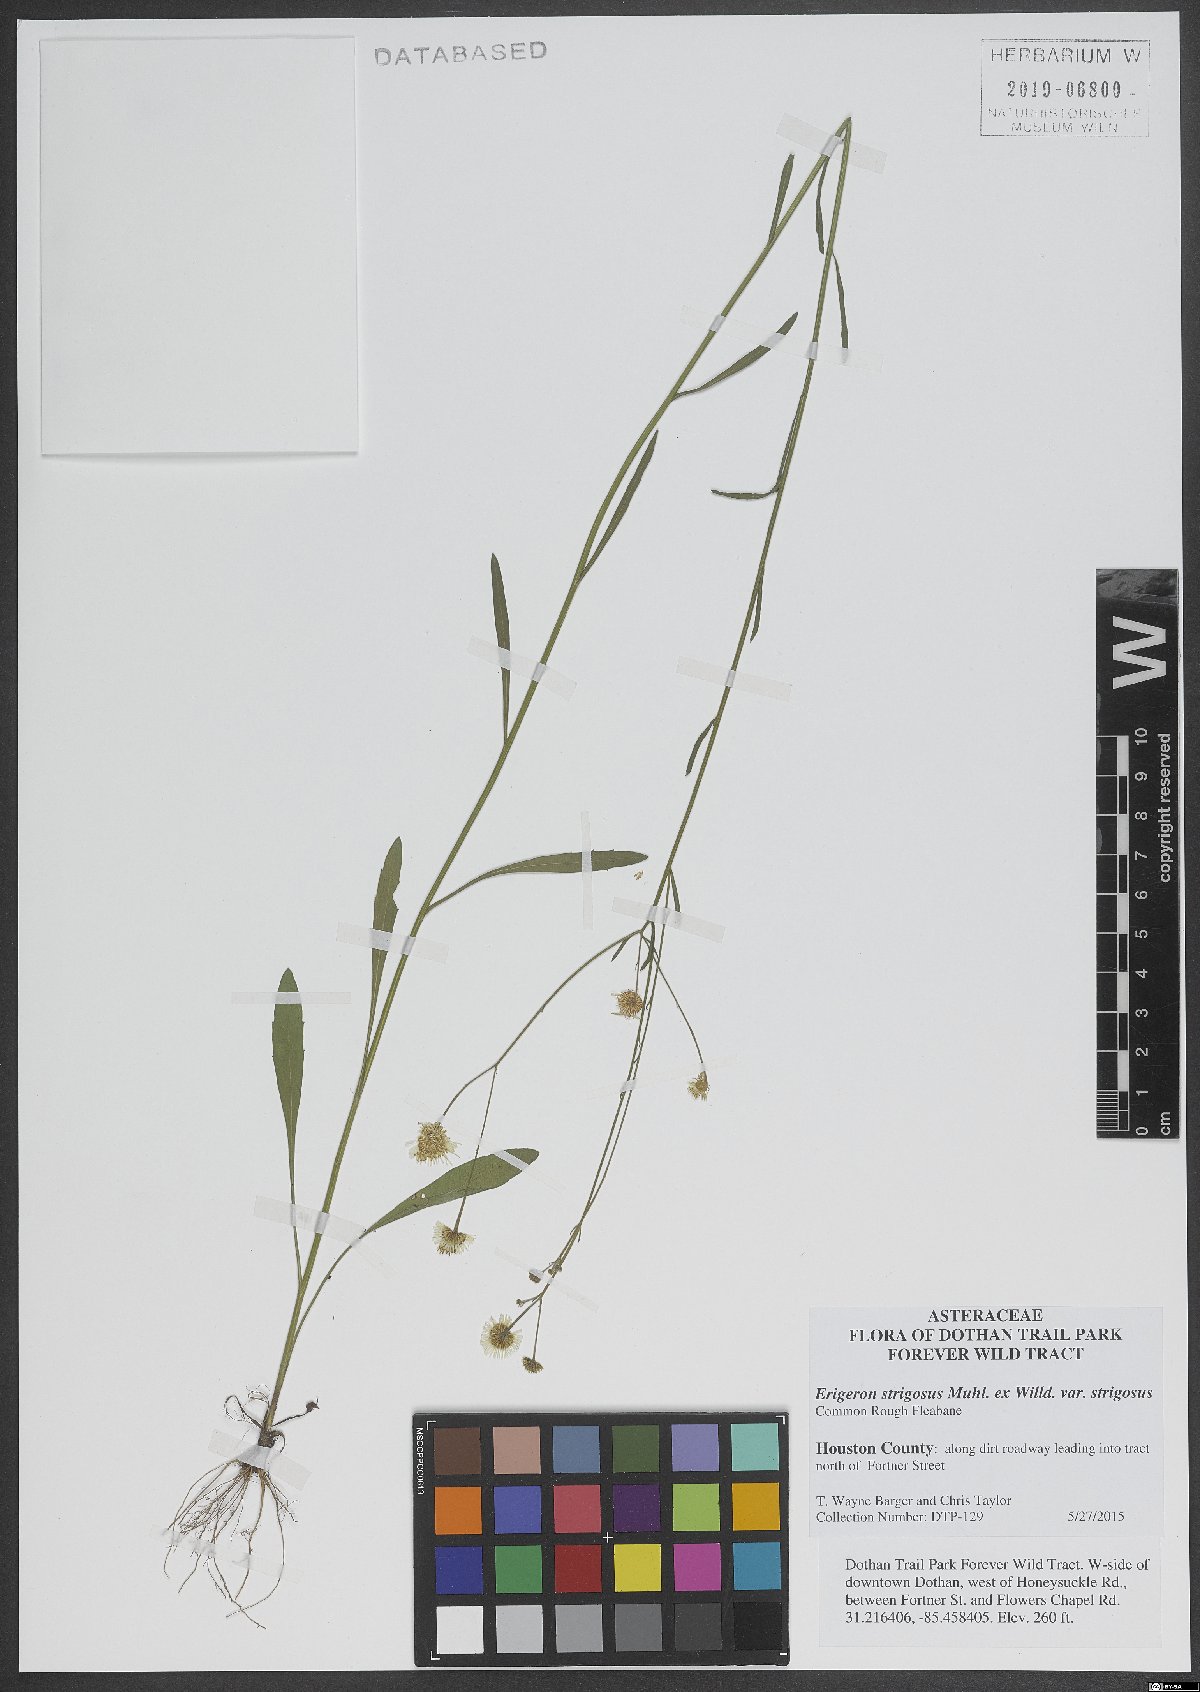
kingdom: Plantae
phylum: Tracheophyta
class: Magnoliopsida
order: Asterales
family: Asteraceae
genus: Erigeron
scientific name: Erigeron strigosus
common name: Common eastern fleabane
